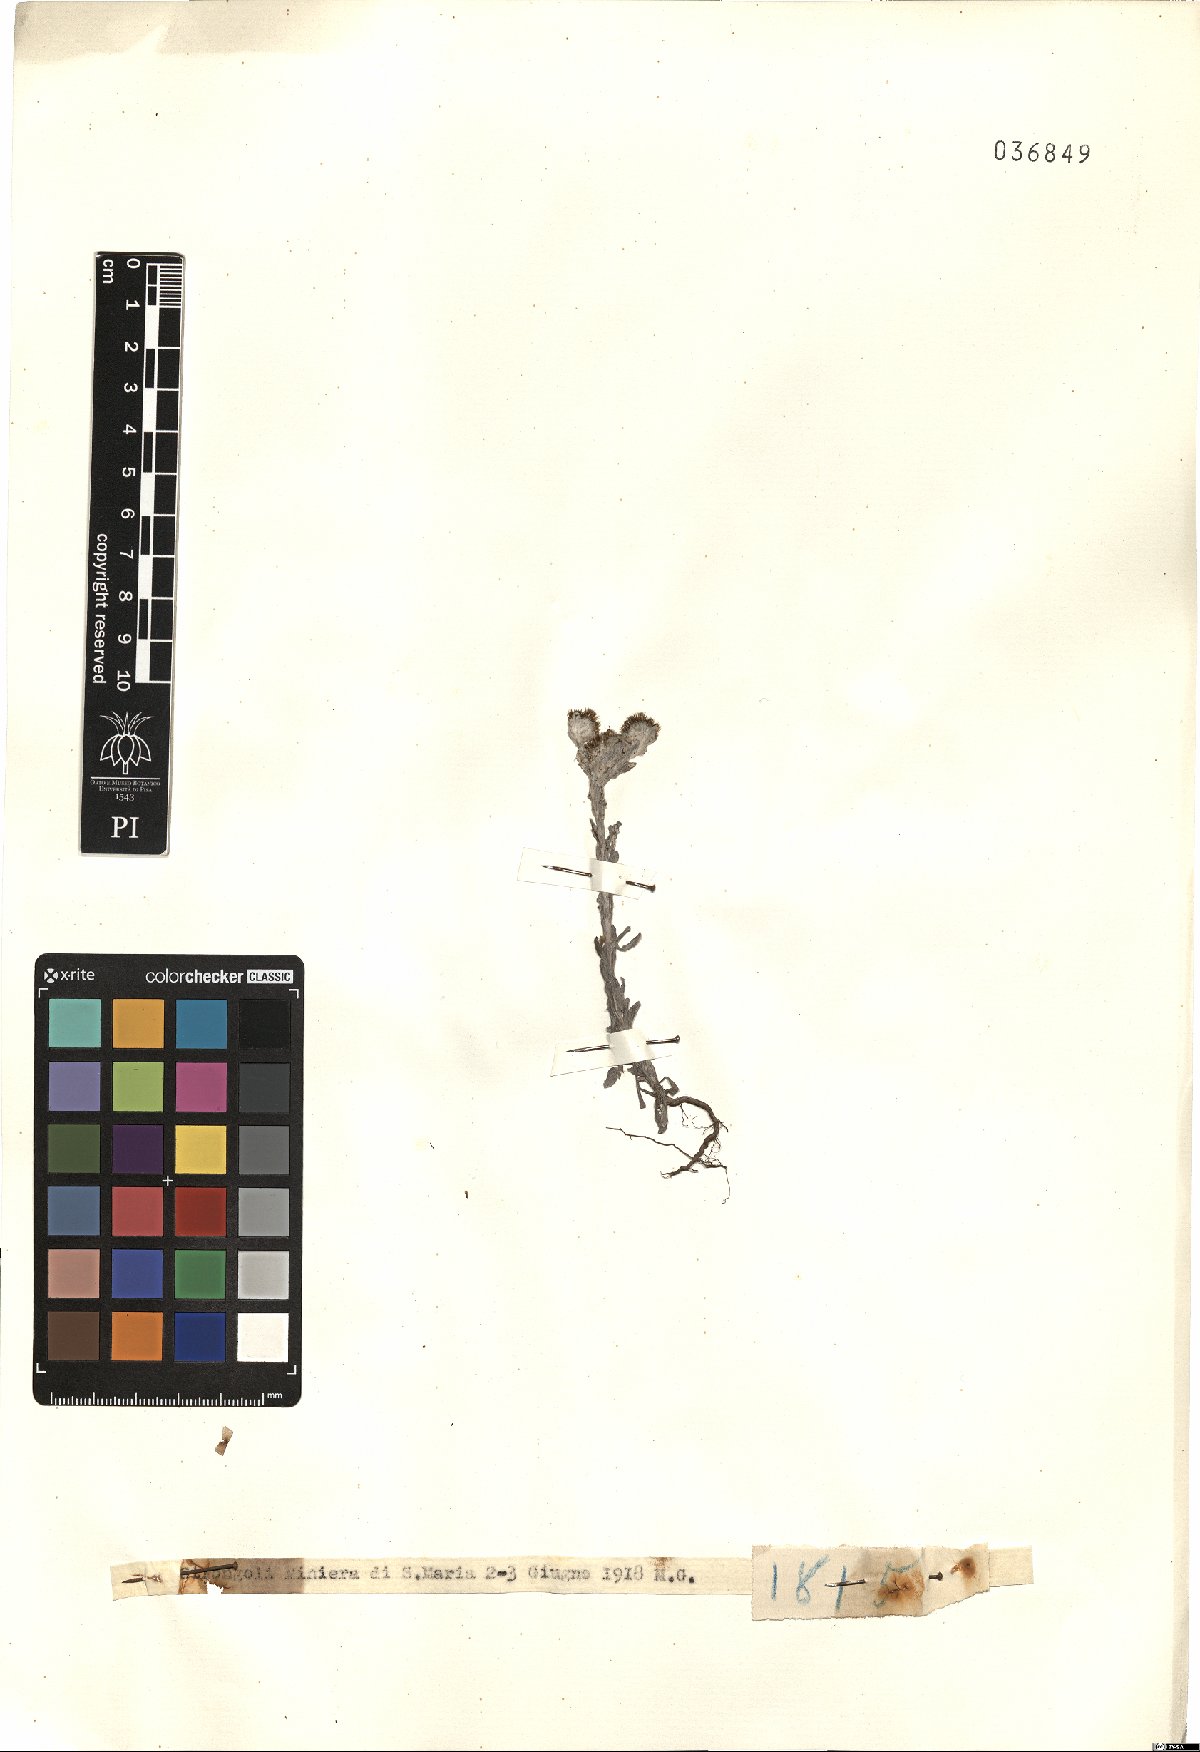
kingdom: Plantae
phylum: Tracheophyta
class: Magnoliopsida
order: Asterales
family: Asteraceae
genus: Filago
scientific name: Filago
